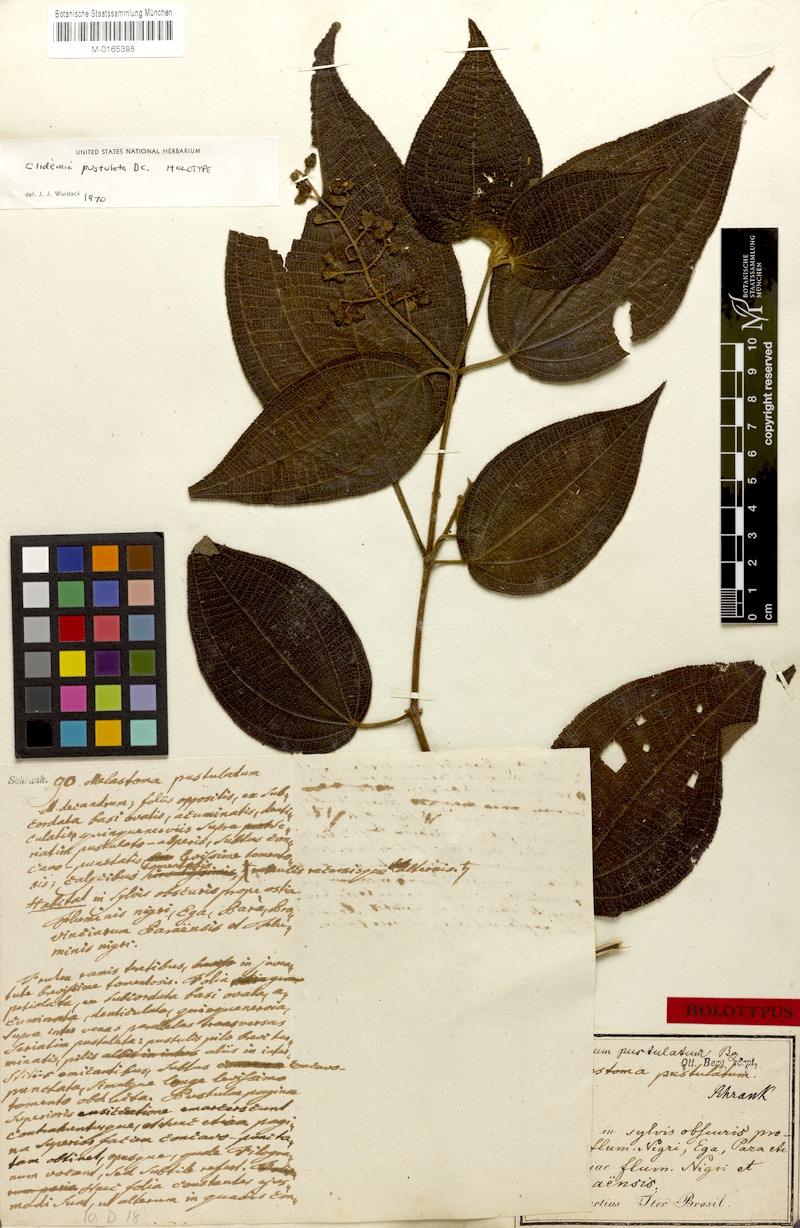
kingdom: Plantae
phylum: Tracheophyta
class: Magnoliopsida
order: Myrtales
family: Melastomataceae
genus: Miconia
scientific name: Miconia fenestrata
